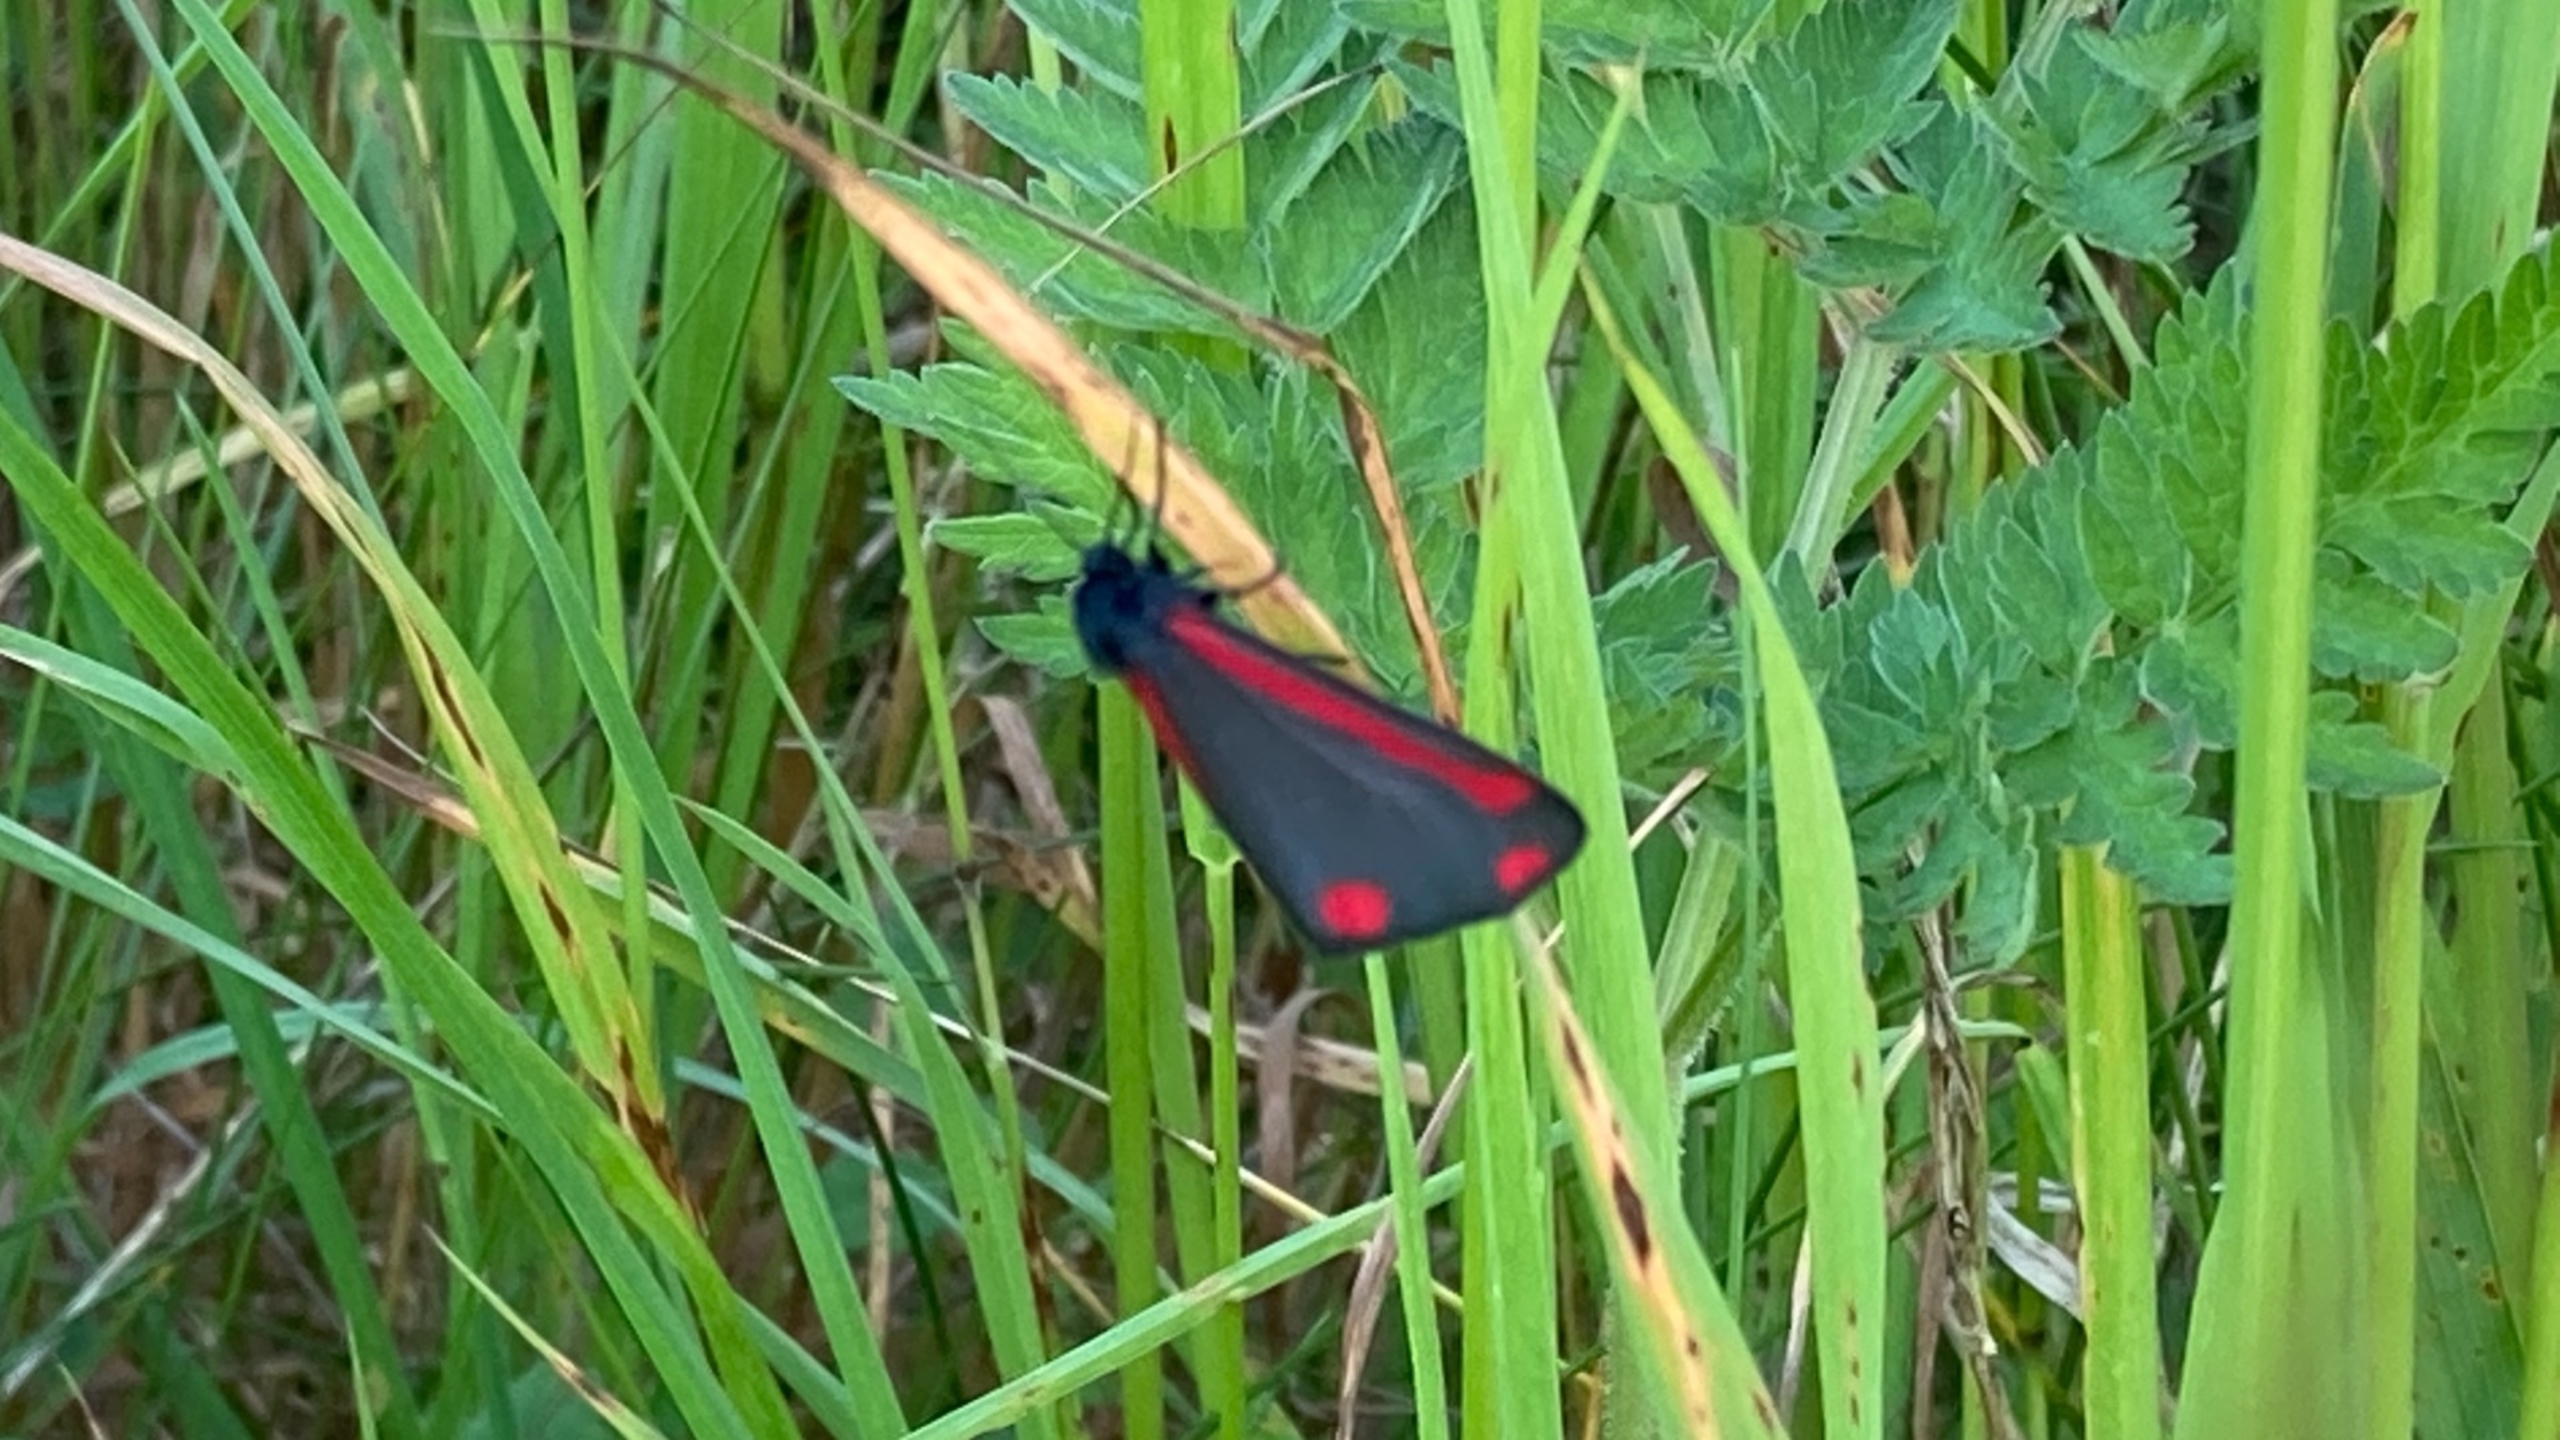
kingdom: Animalia
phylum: Arthropoda
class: Insecta
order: Lepidoptera
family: Erebidae
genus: Tyria
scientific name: Tyria jacobaeae
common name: Blodplet
